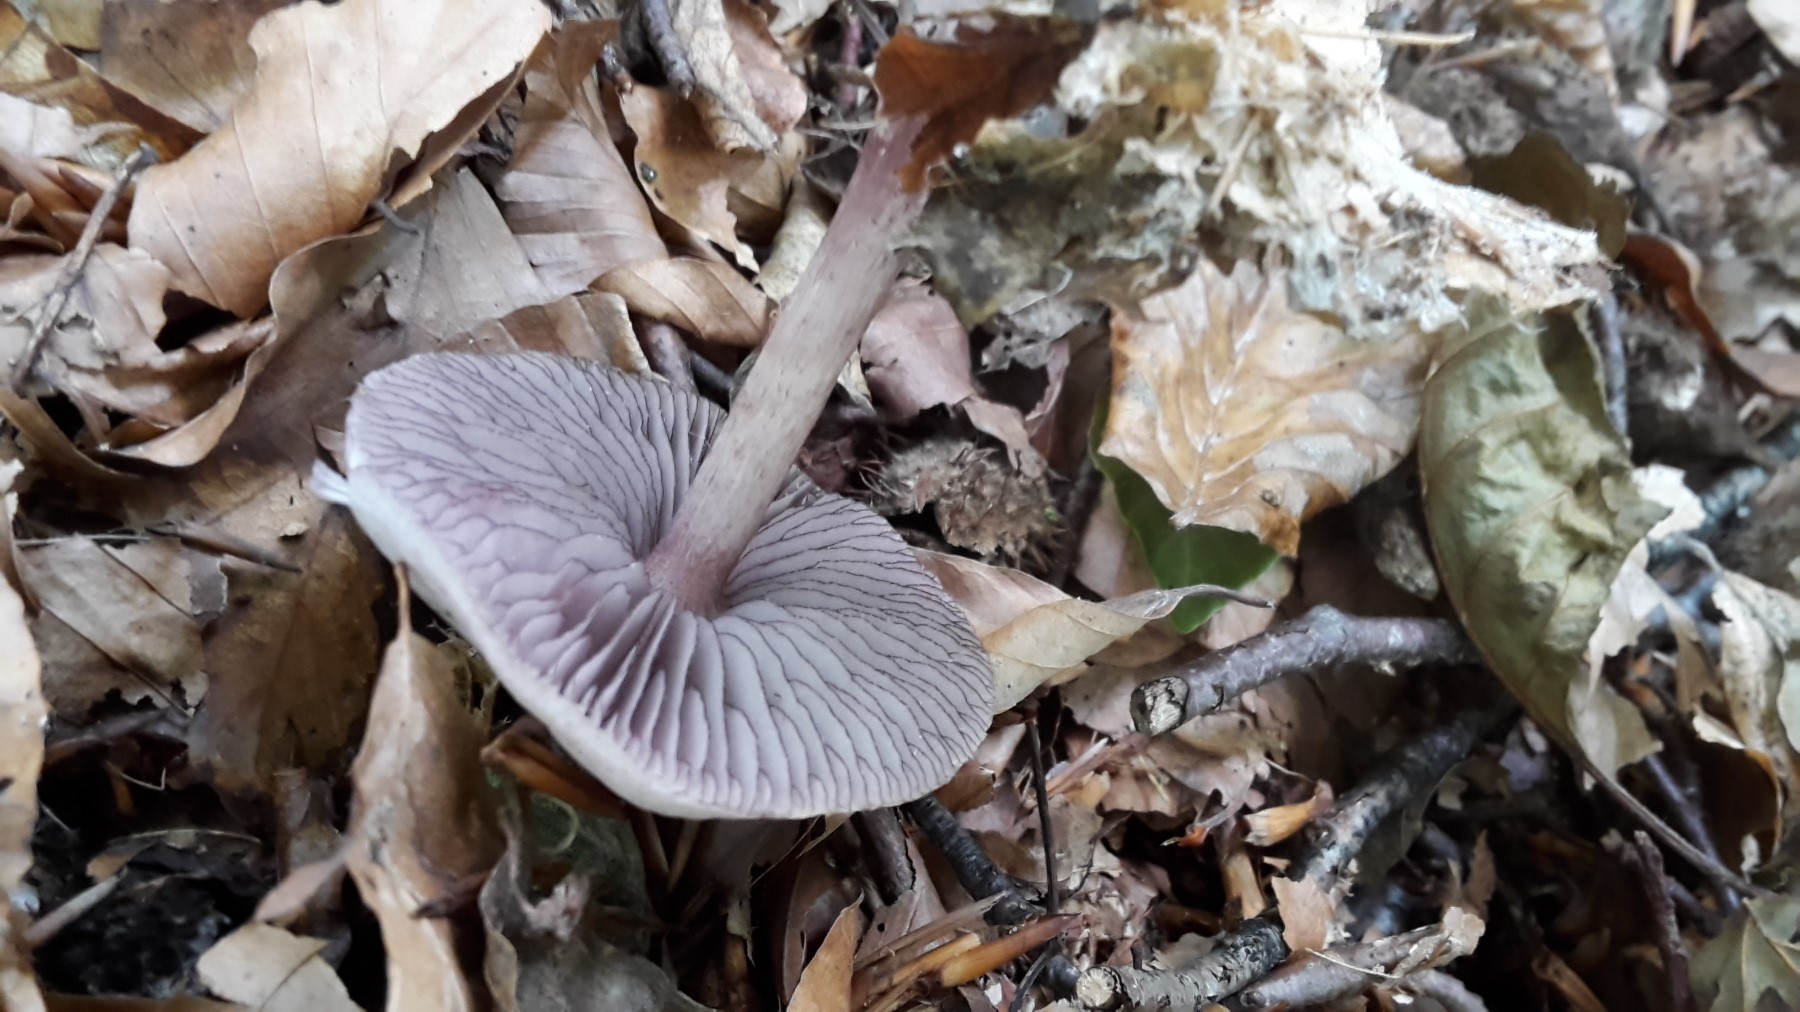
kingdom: Fungi
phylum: Basidiomycota
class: Agaricomycetes
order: Agaricales
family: Mycenaceae
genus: Mycena
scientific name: Mycena pelianthina
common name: mørkbladet huesvamp
